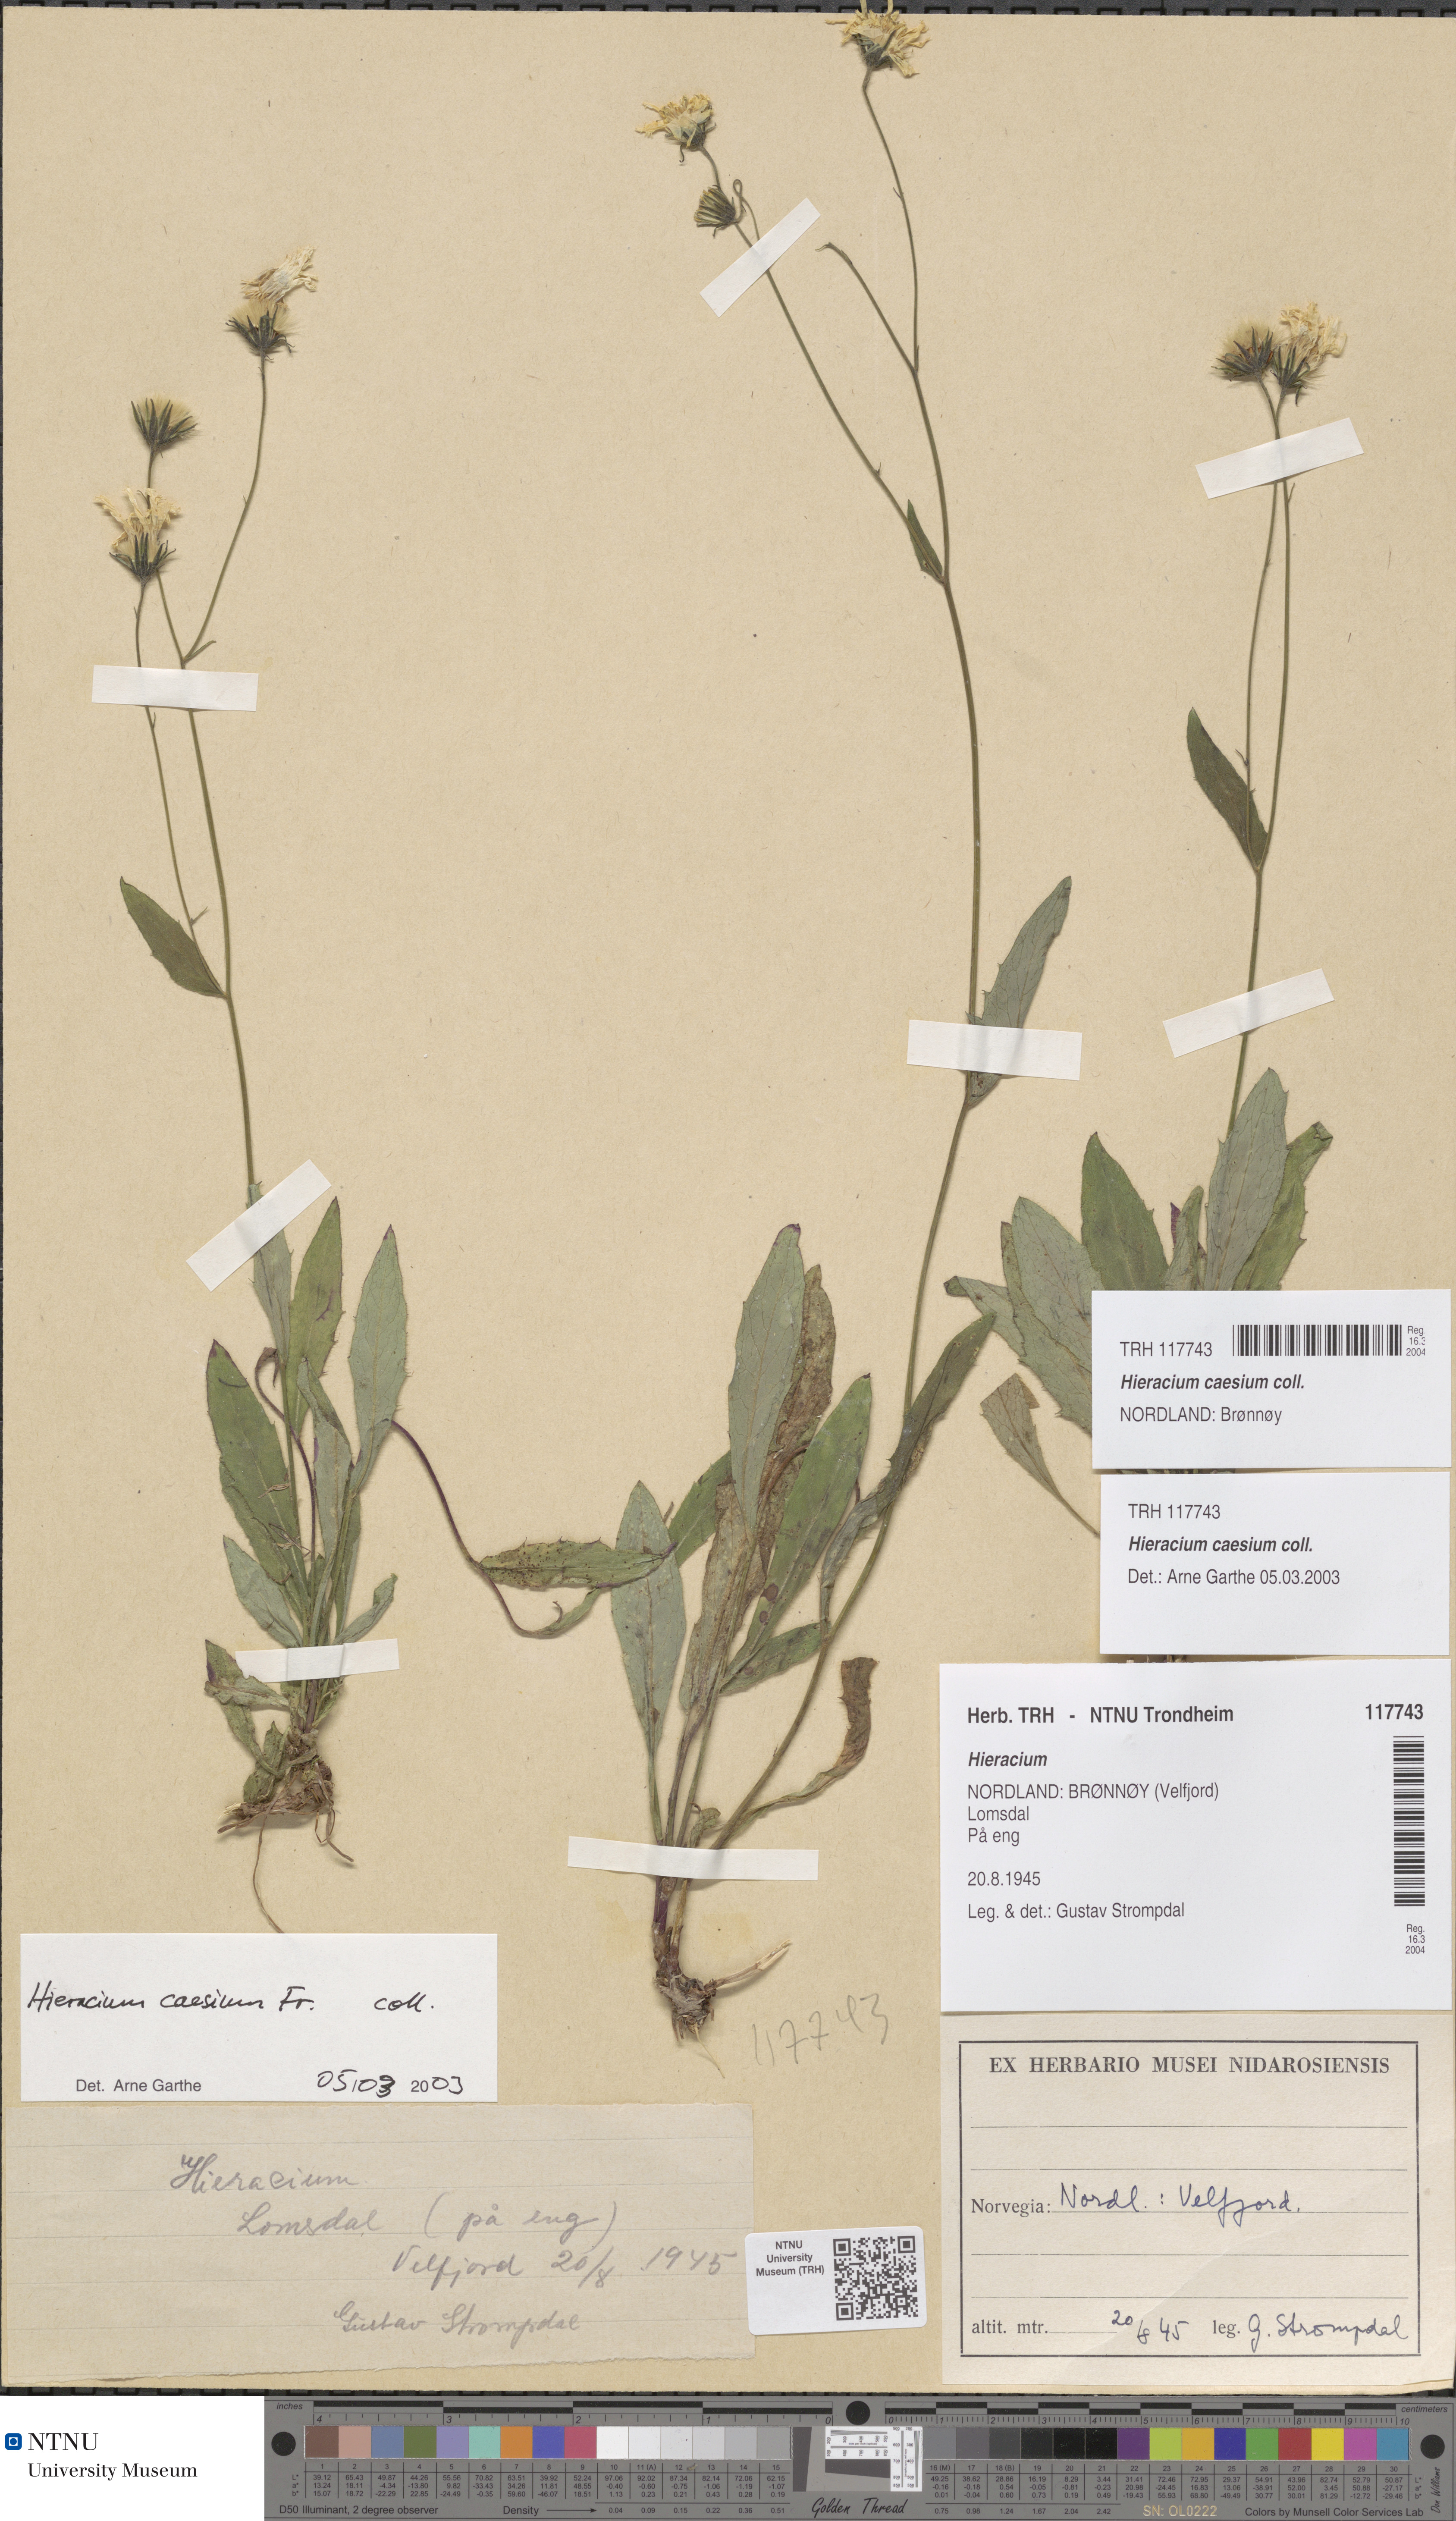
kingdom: Plantae
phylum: Tracheophyta
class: Magnoliopsida
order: Asterales
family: Asteraceae
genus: Hieracium
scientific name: Hieracium caesium
